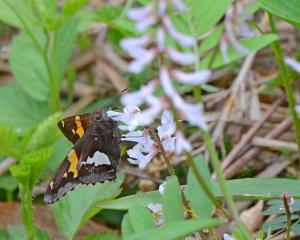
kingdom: Animalia
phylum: Arthropoda
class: Insecta
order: Lepidoptera
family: Hesperiidae
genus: Epargyreus
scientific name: Epargyreus clarus
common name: Silver-spotted Skipper
